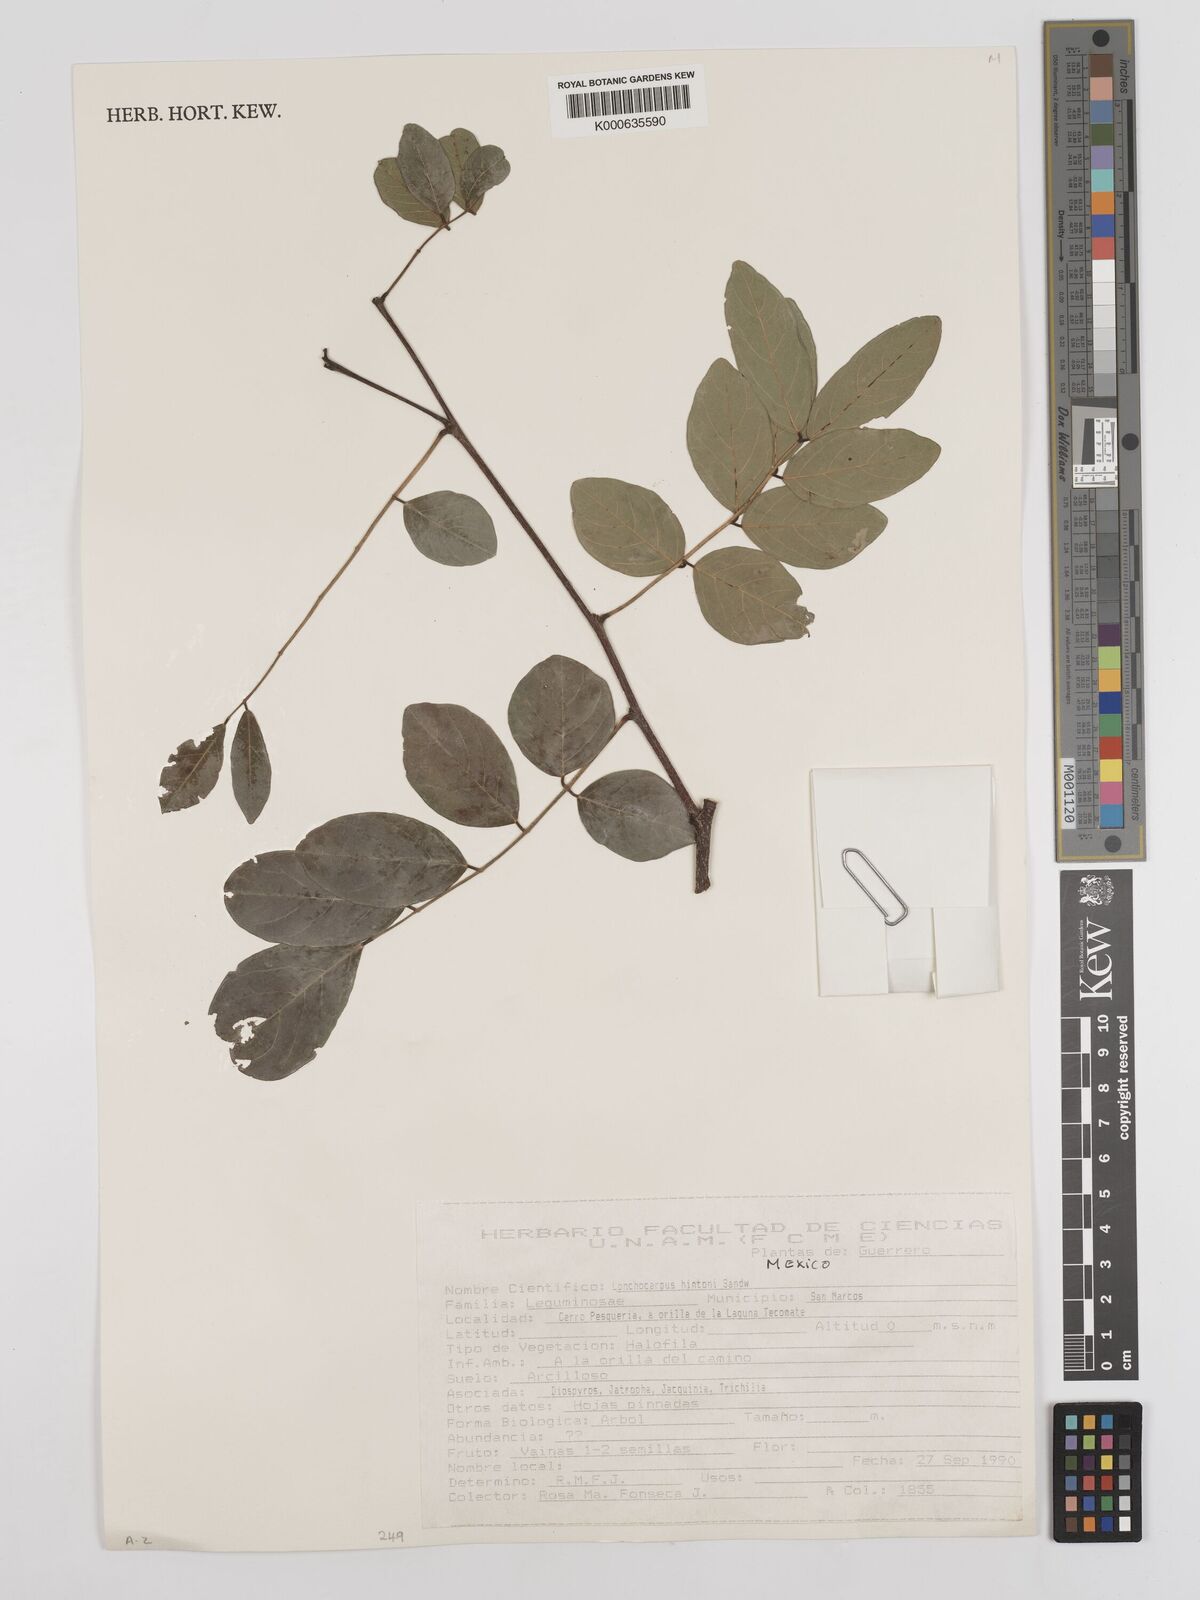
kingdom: Plantae
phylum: Tracheophyta
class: Magnoliopsida
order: Fabales
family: Fabaceae
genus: Lonchocarpus
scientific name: Lonchocarpus hintonii
